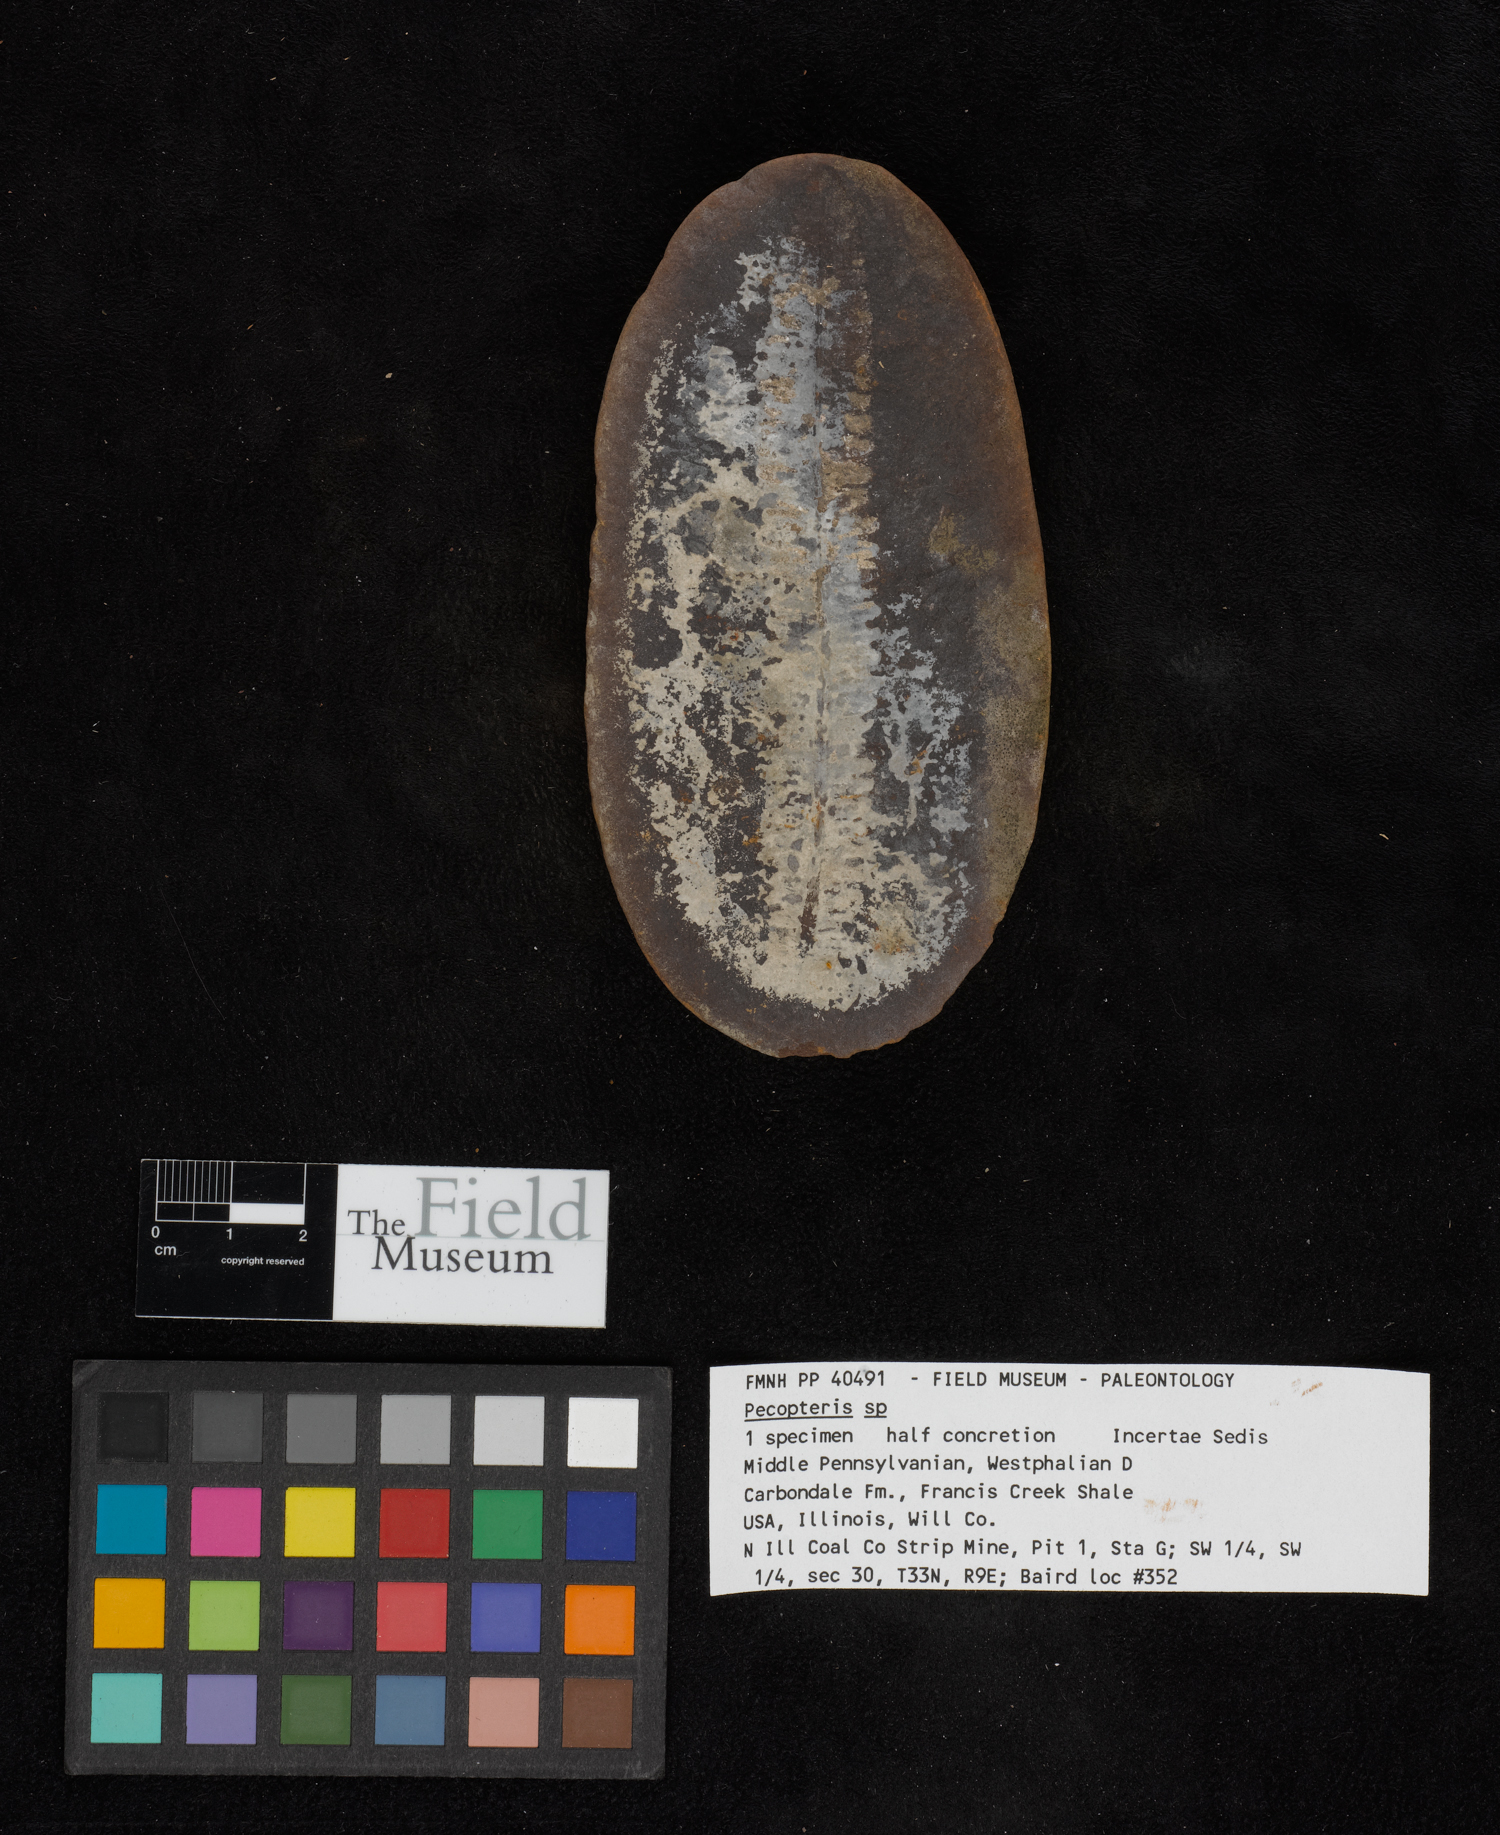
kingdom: Plantae
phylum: Tracheophyta
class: Polypodiopsida
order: Marattiales
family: Asterothecaceae
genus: Pecopteris
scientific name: Pecopteris
